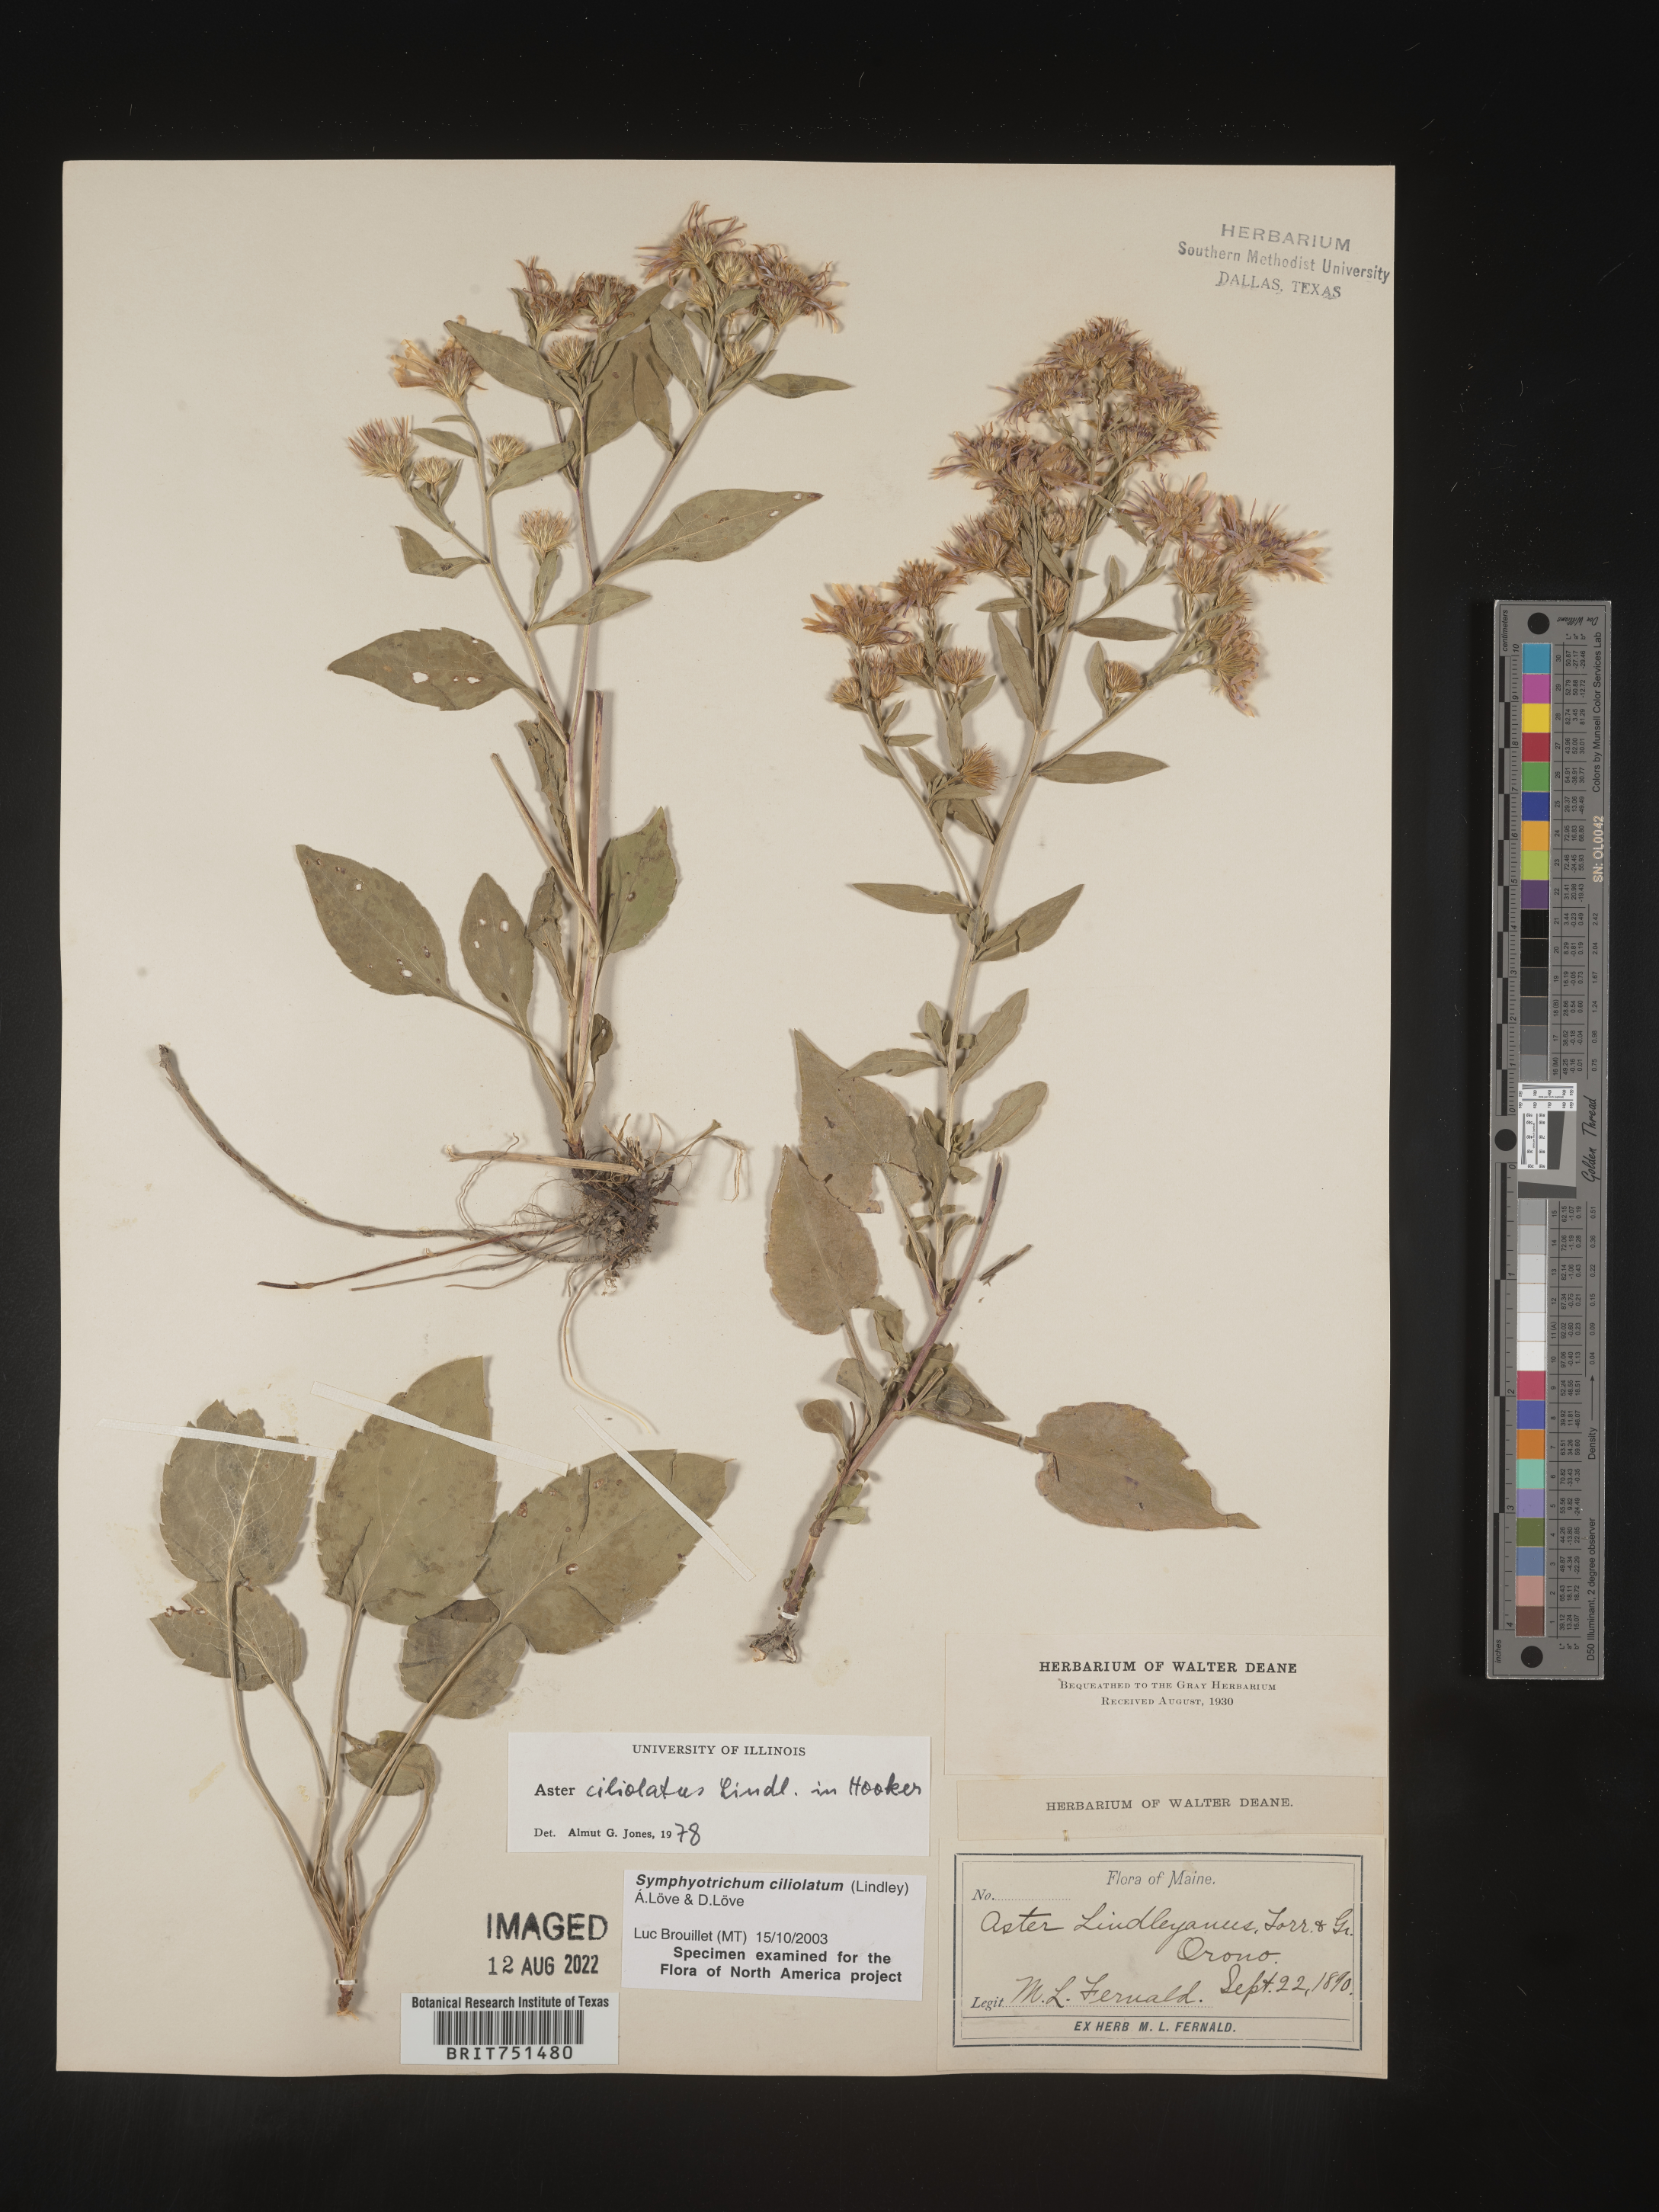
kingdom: Plantae
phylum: Tracheophyta
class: Magnoliopsida
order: Asterales
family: Asteraceae
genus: Symphyotrichum
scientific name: Symphyotrichum ciliolatum
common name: Fringed blue aster
